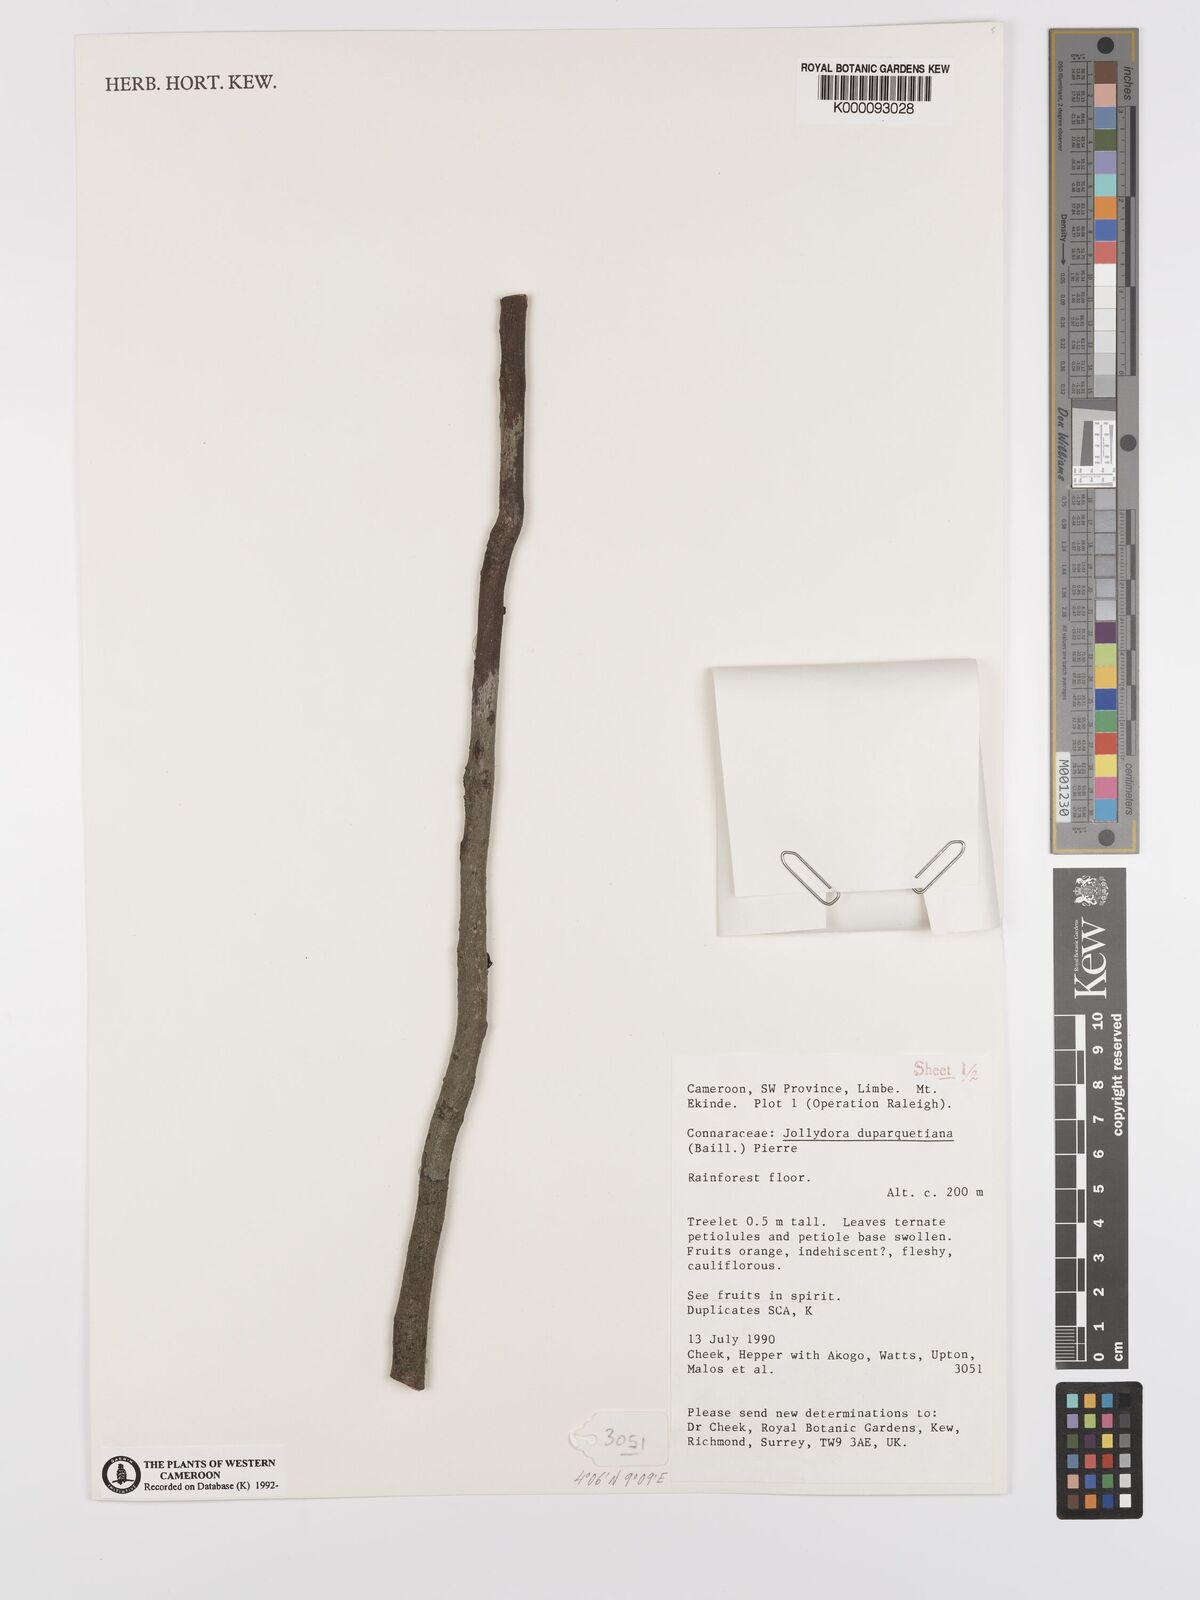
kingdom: Plantae
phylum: Tracheophyta
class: Magnoliopsida
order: Oxalidales
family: Connaraceae
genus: Jollydora
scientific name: Jollydora duparquetiana
